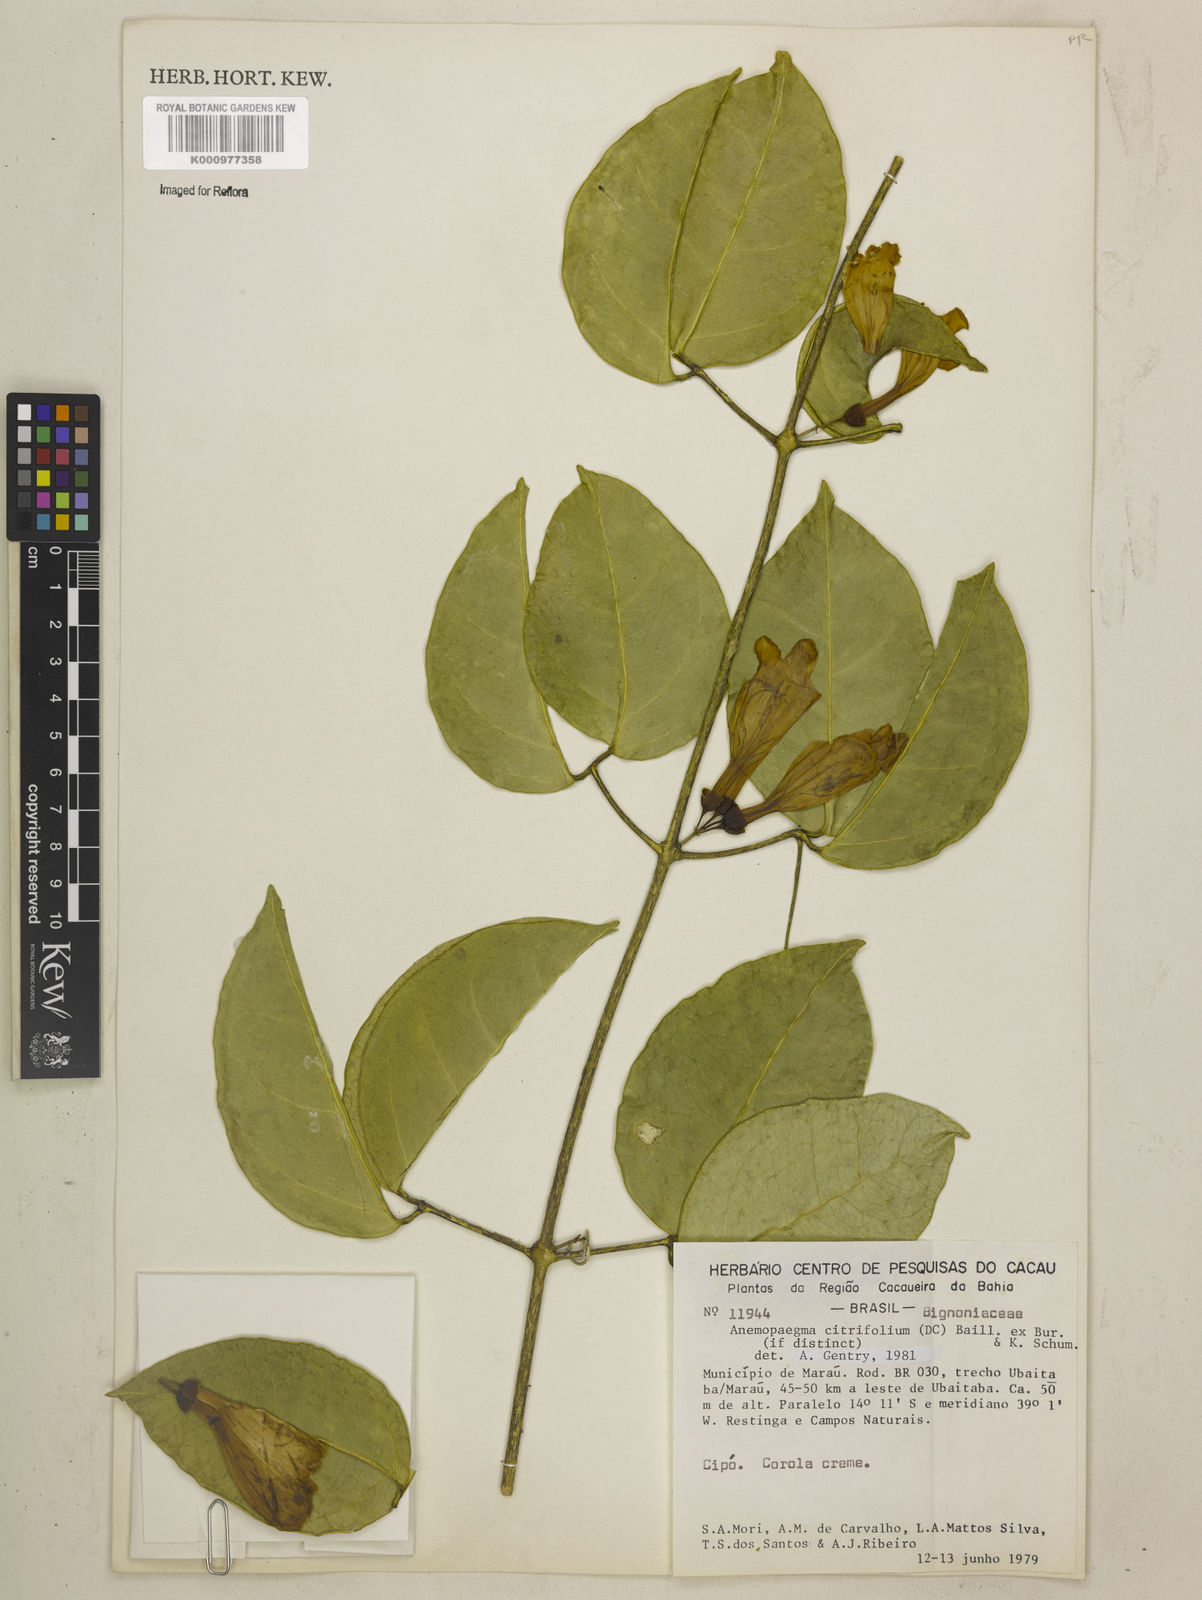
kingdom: Plantae
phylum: Tracheophyta
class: Magnoliopsida
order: Lamiales
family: Bignoniaceae
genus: Anemopaegma
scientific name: Anemopaegma citrinum
